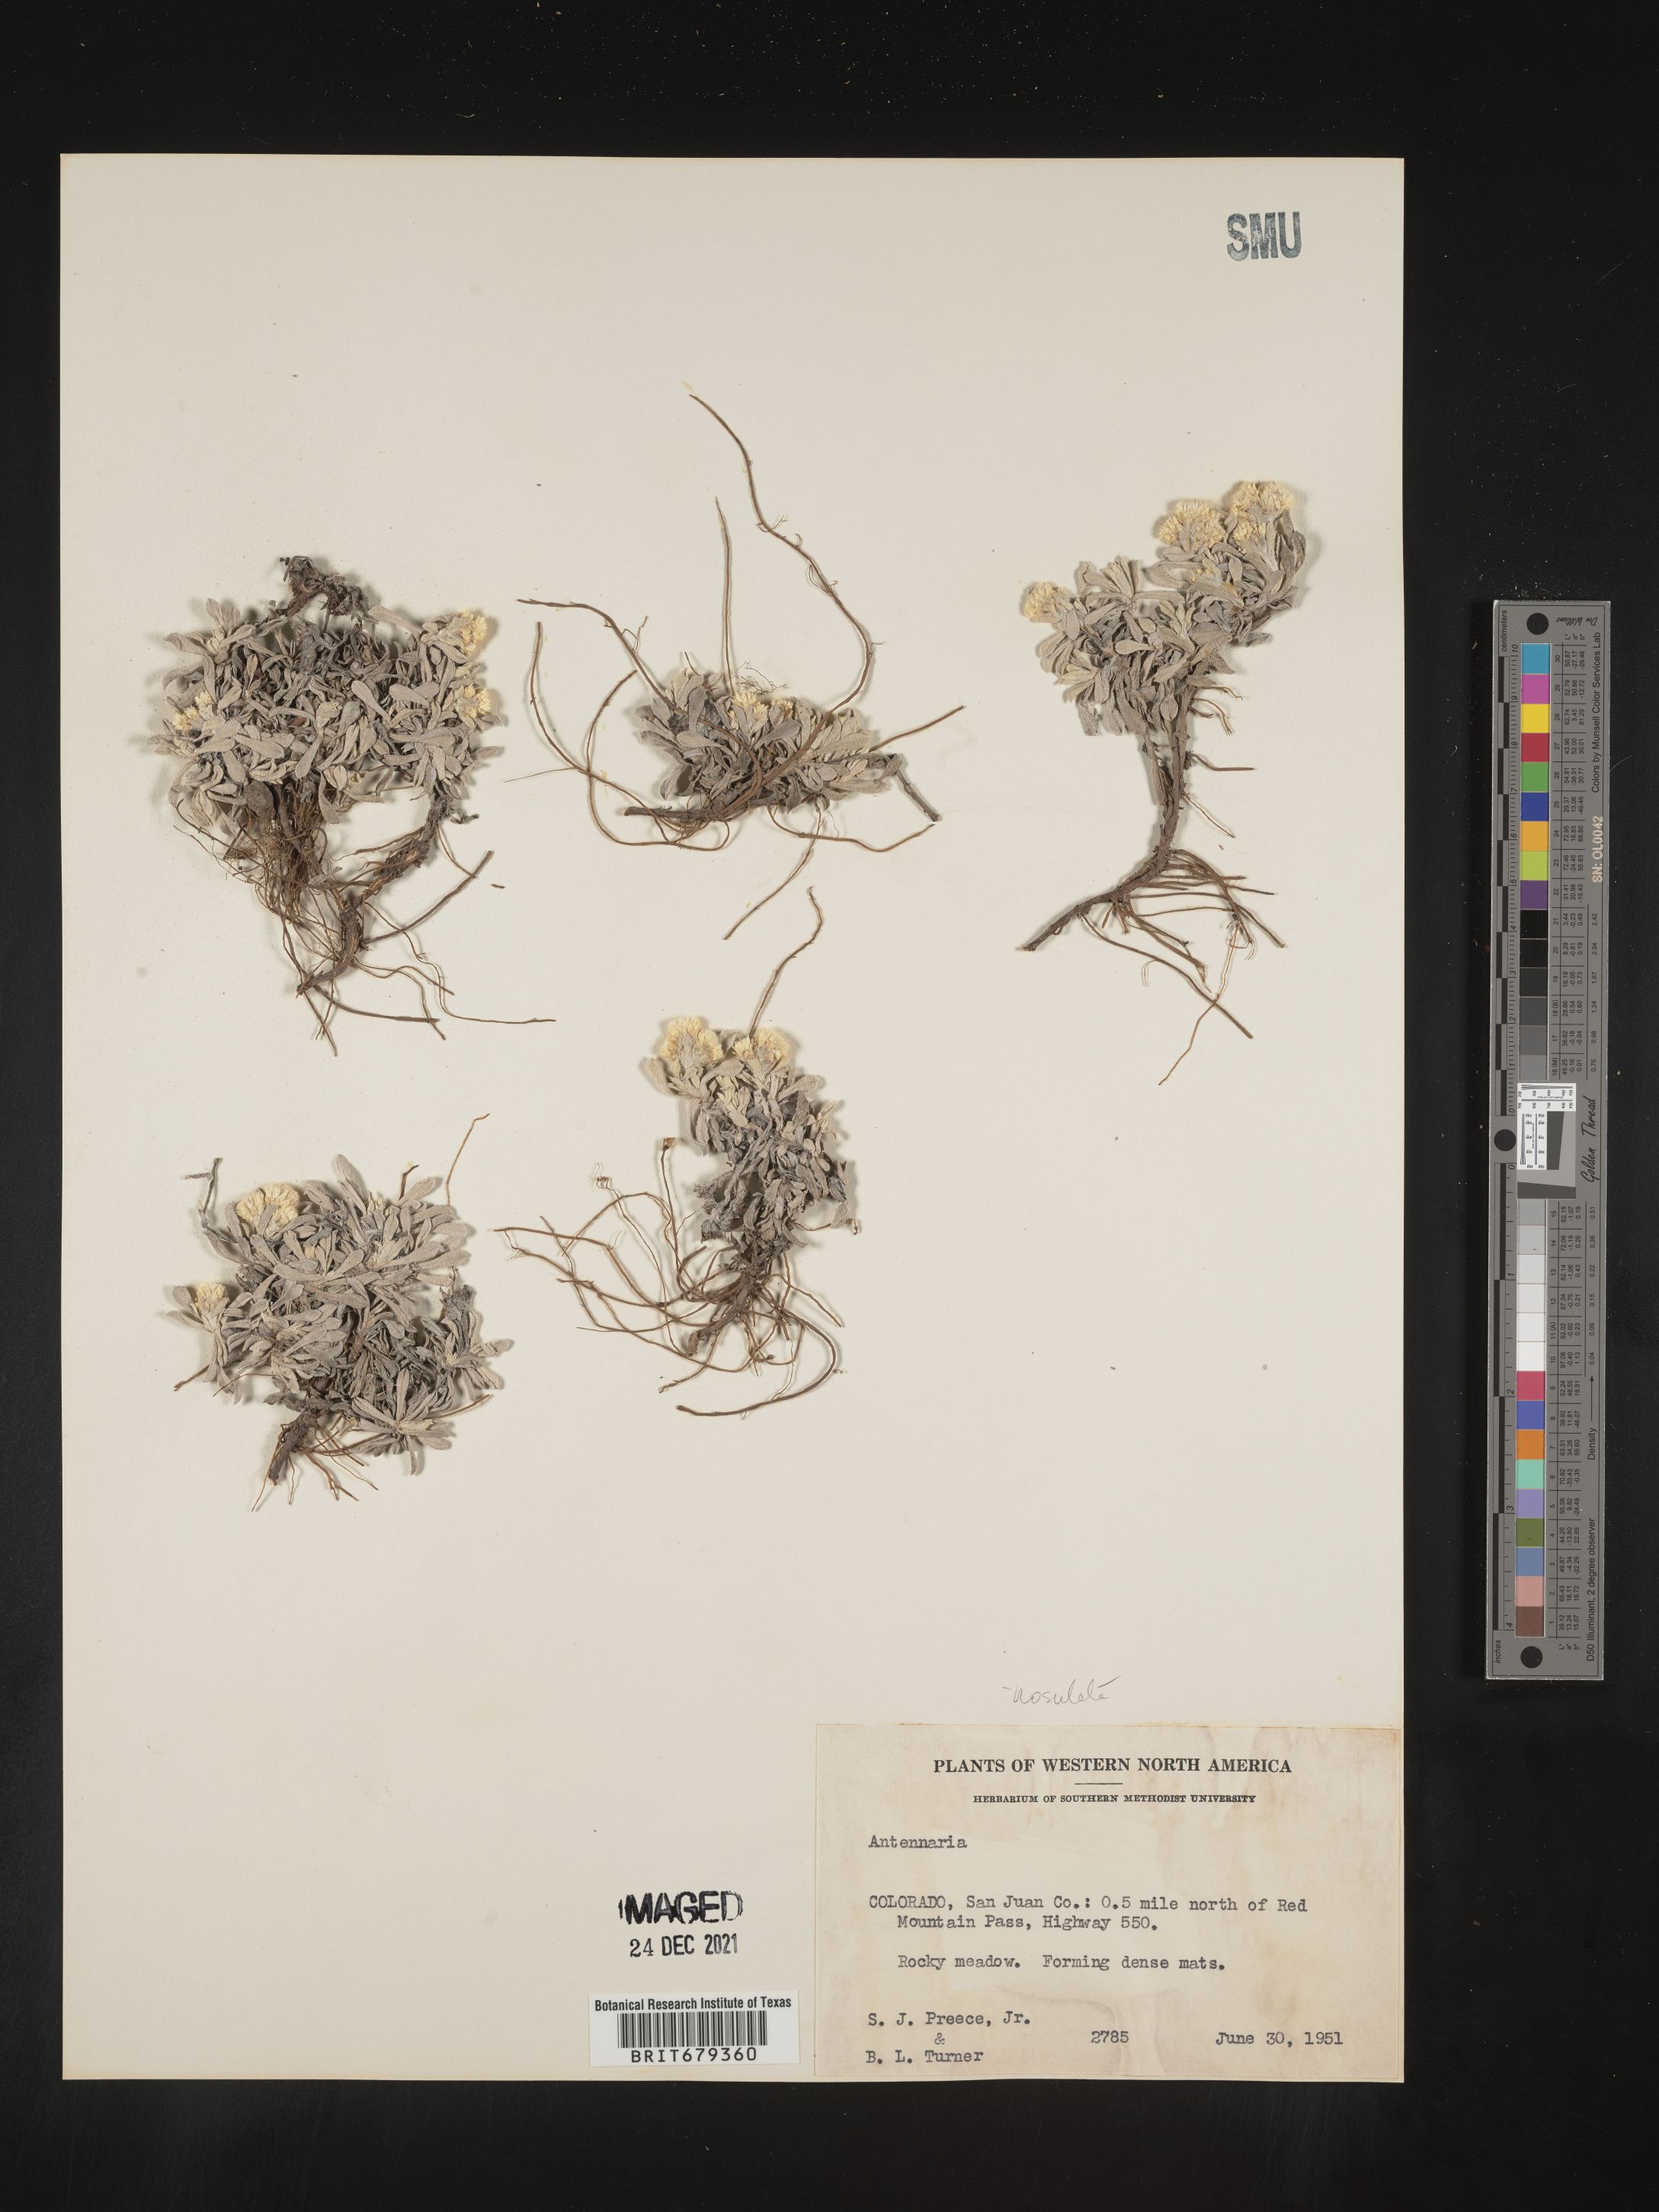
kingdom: Plantae
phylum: Tracheophyta
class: Magnoliopsida
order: Asterales
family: Asteraceae
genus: Antennaria
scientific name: Antennaria corymbosa
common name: Meadow pussytoes
